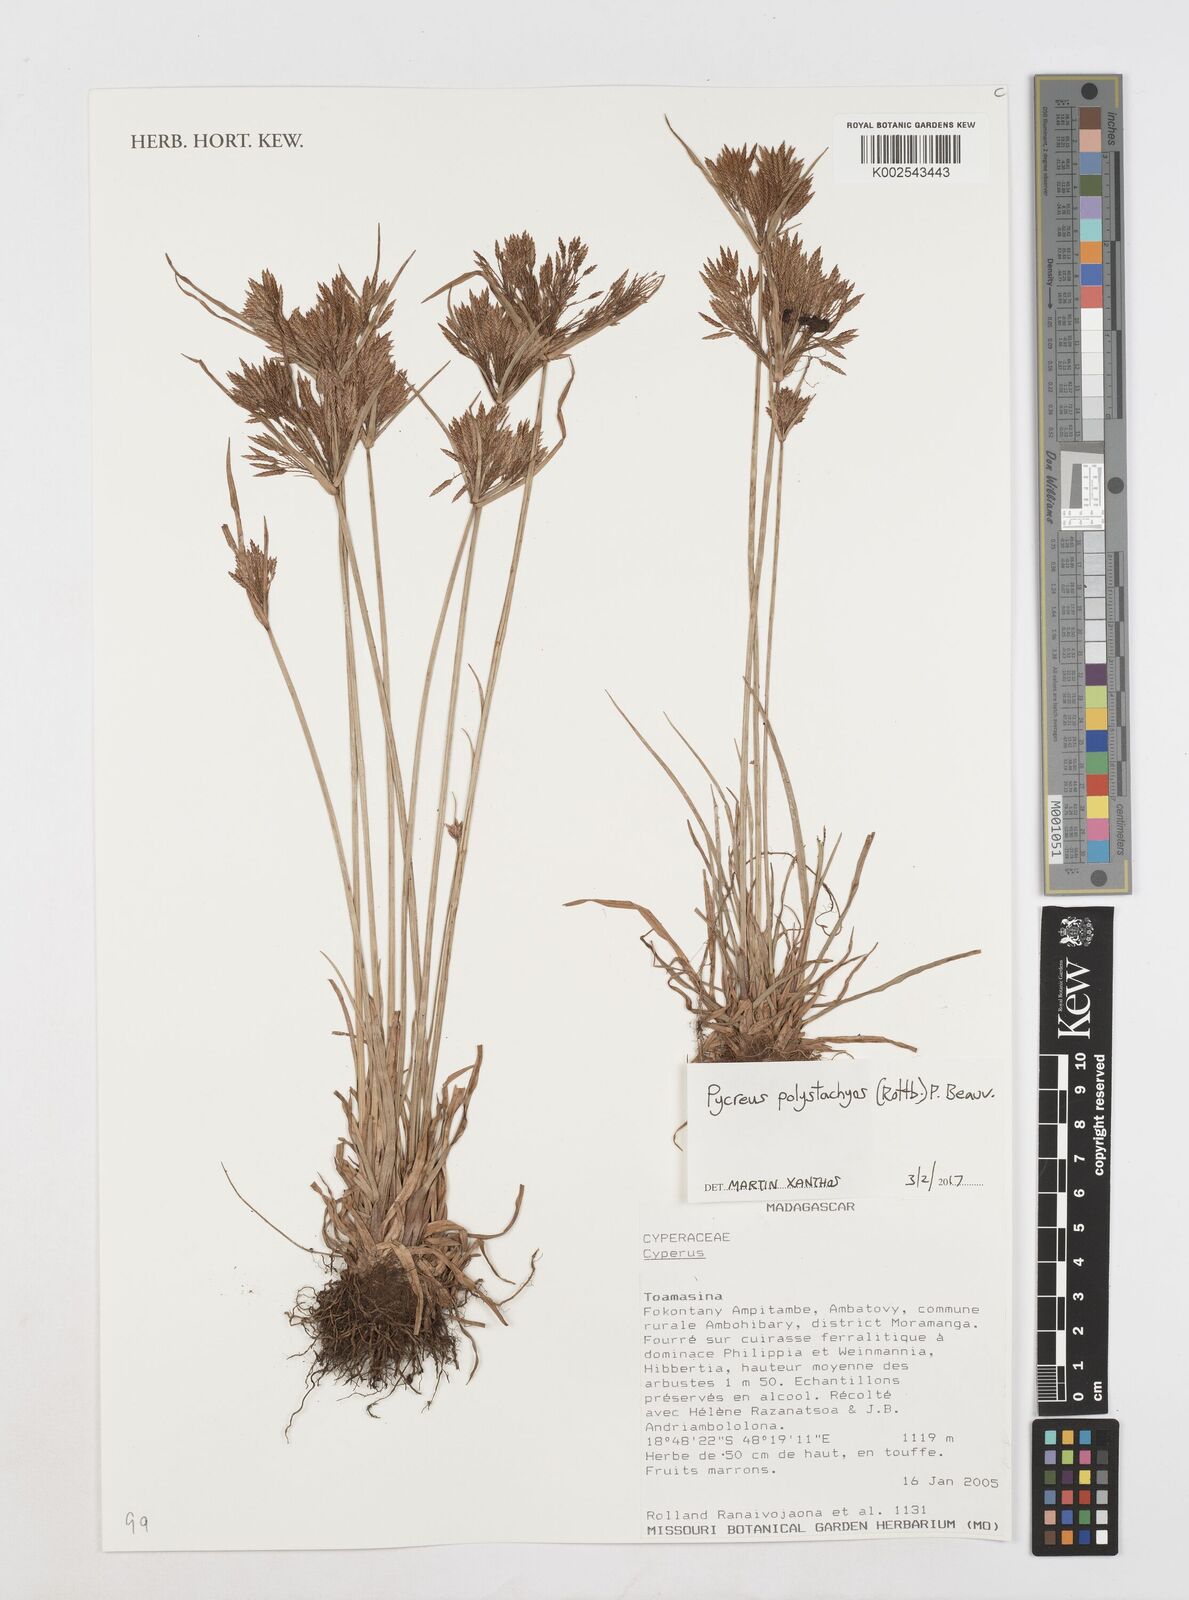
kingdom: Plantae
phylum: Tracheophyta
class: Liliopsida
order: Poales
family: Cyperaceae
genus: Cyperus
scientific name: Cyperus polystachyos
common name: Bunchy flat sedge
